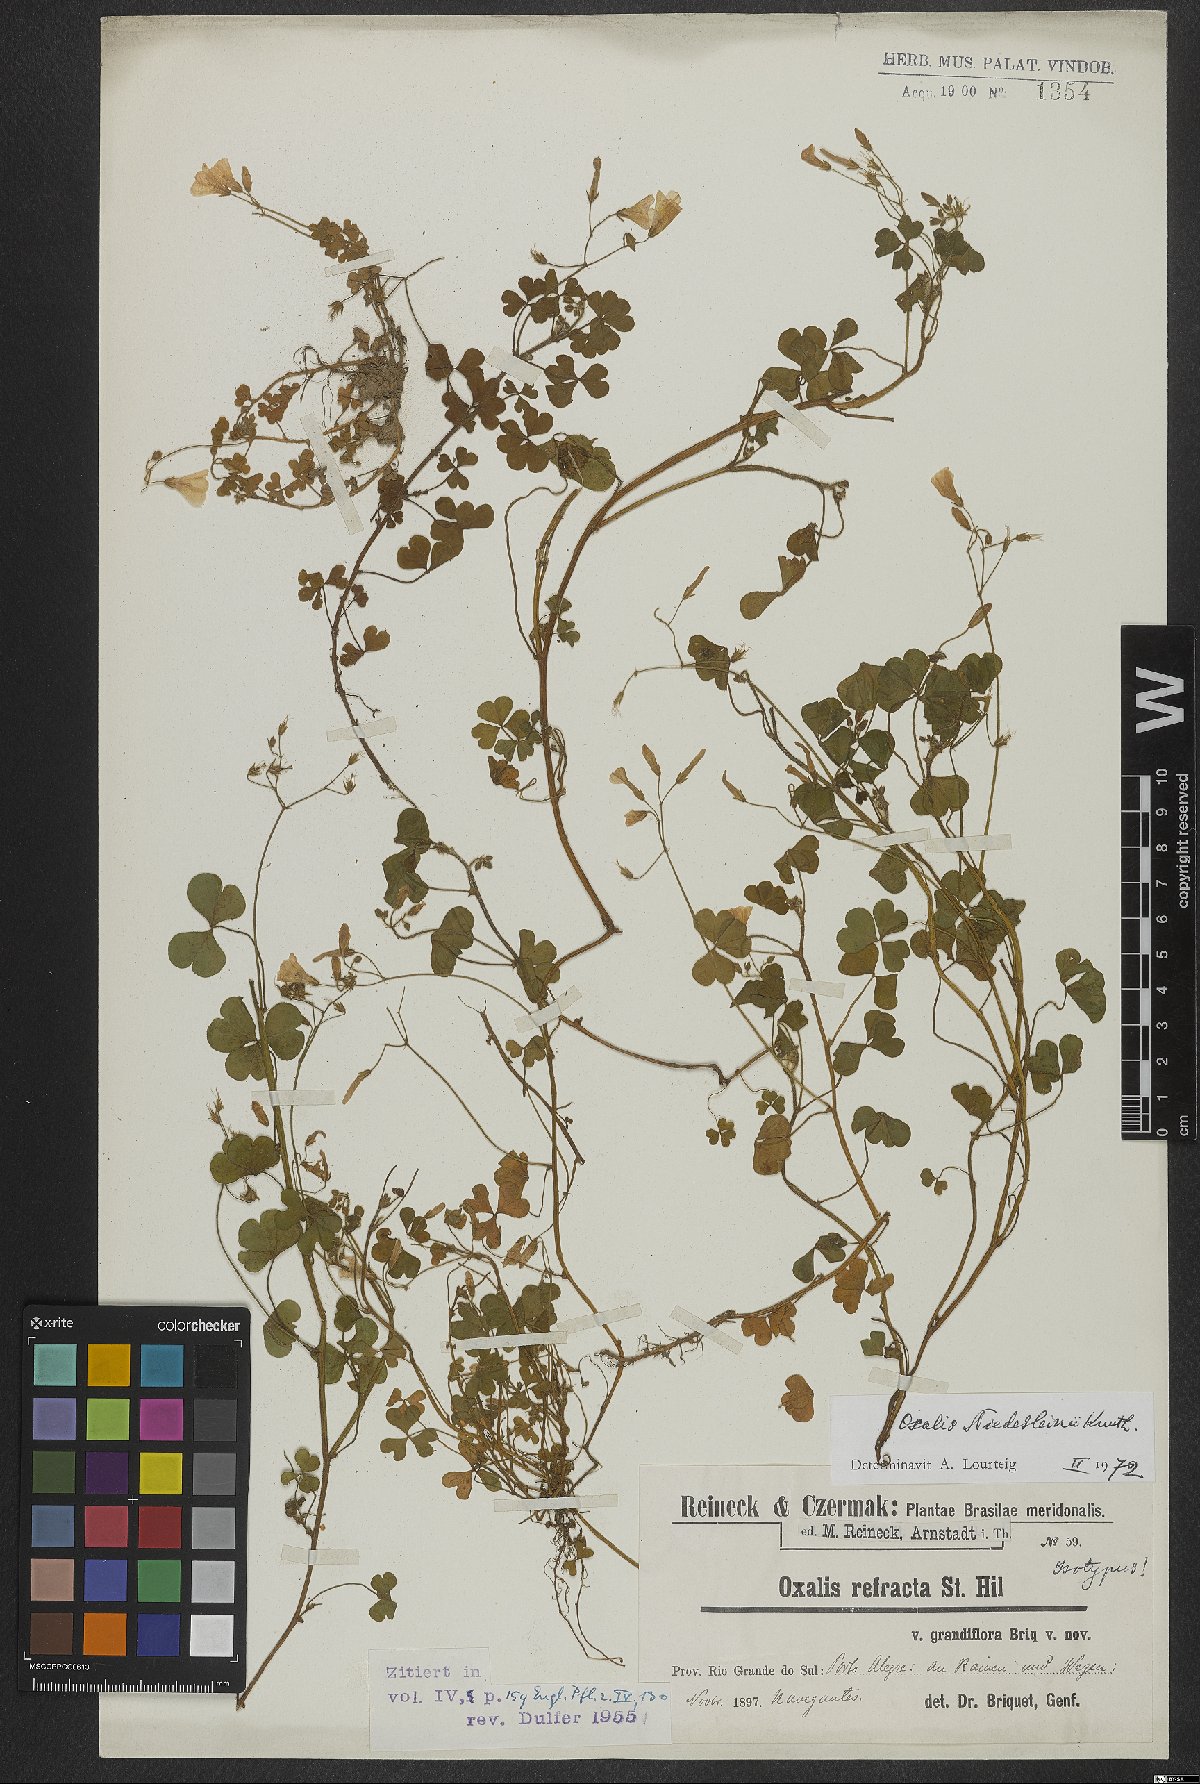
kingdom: Plantae
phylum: Tracheophyta
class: Magnoliopsida
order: Oxalidales
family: Oxalidaceae
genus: Oxalis
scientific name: Oxalis niederleinii
